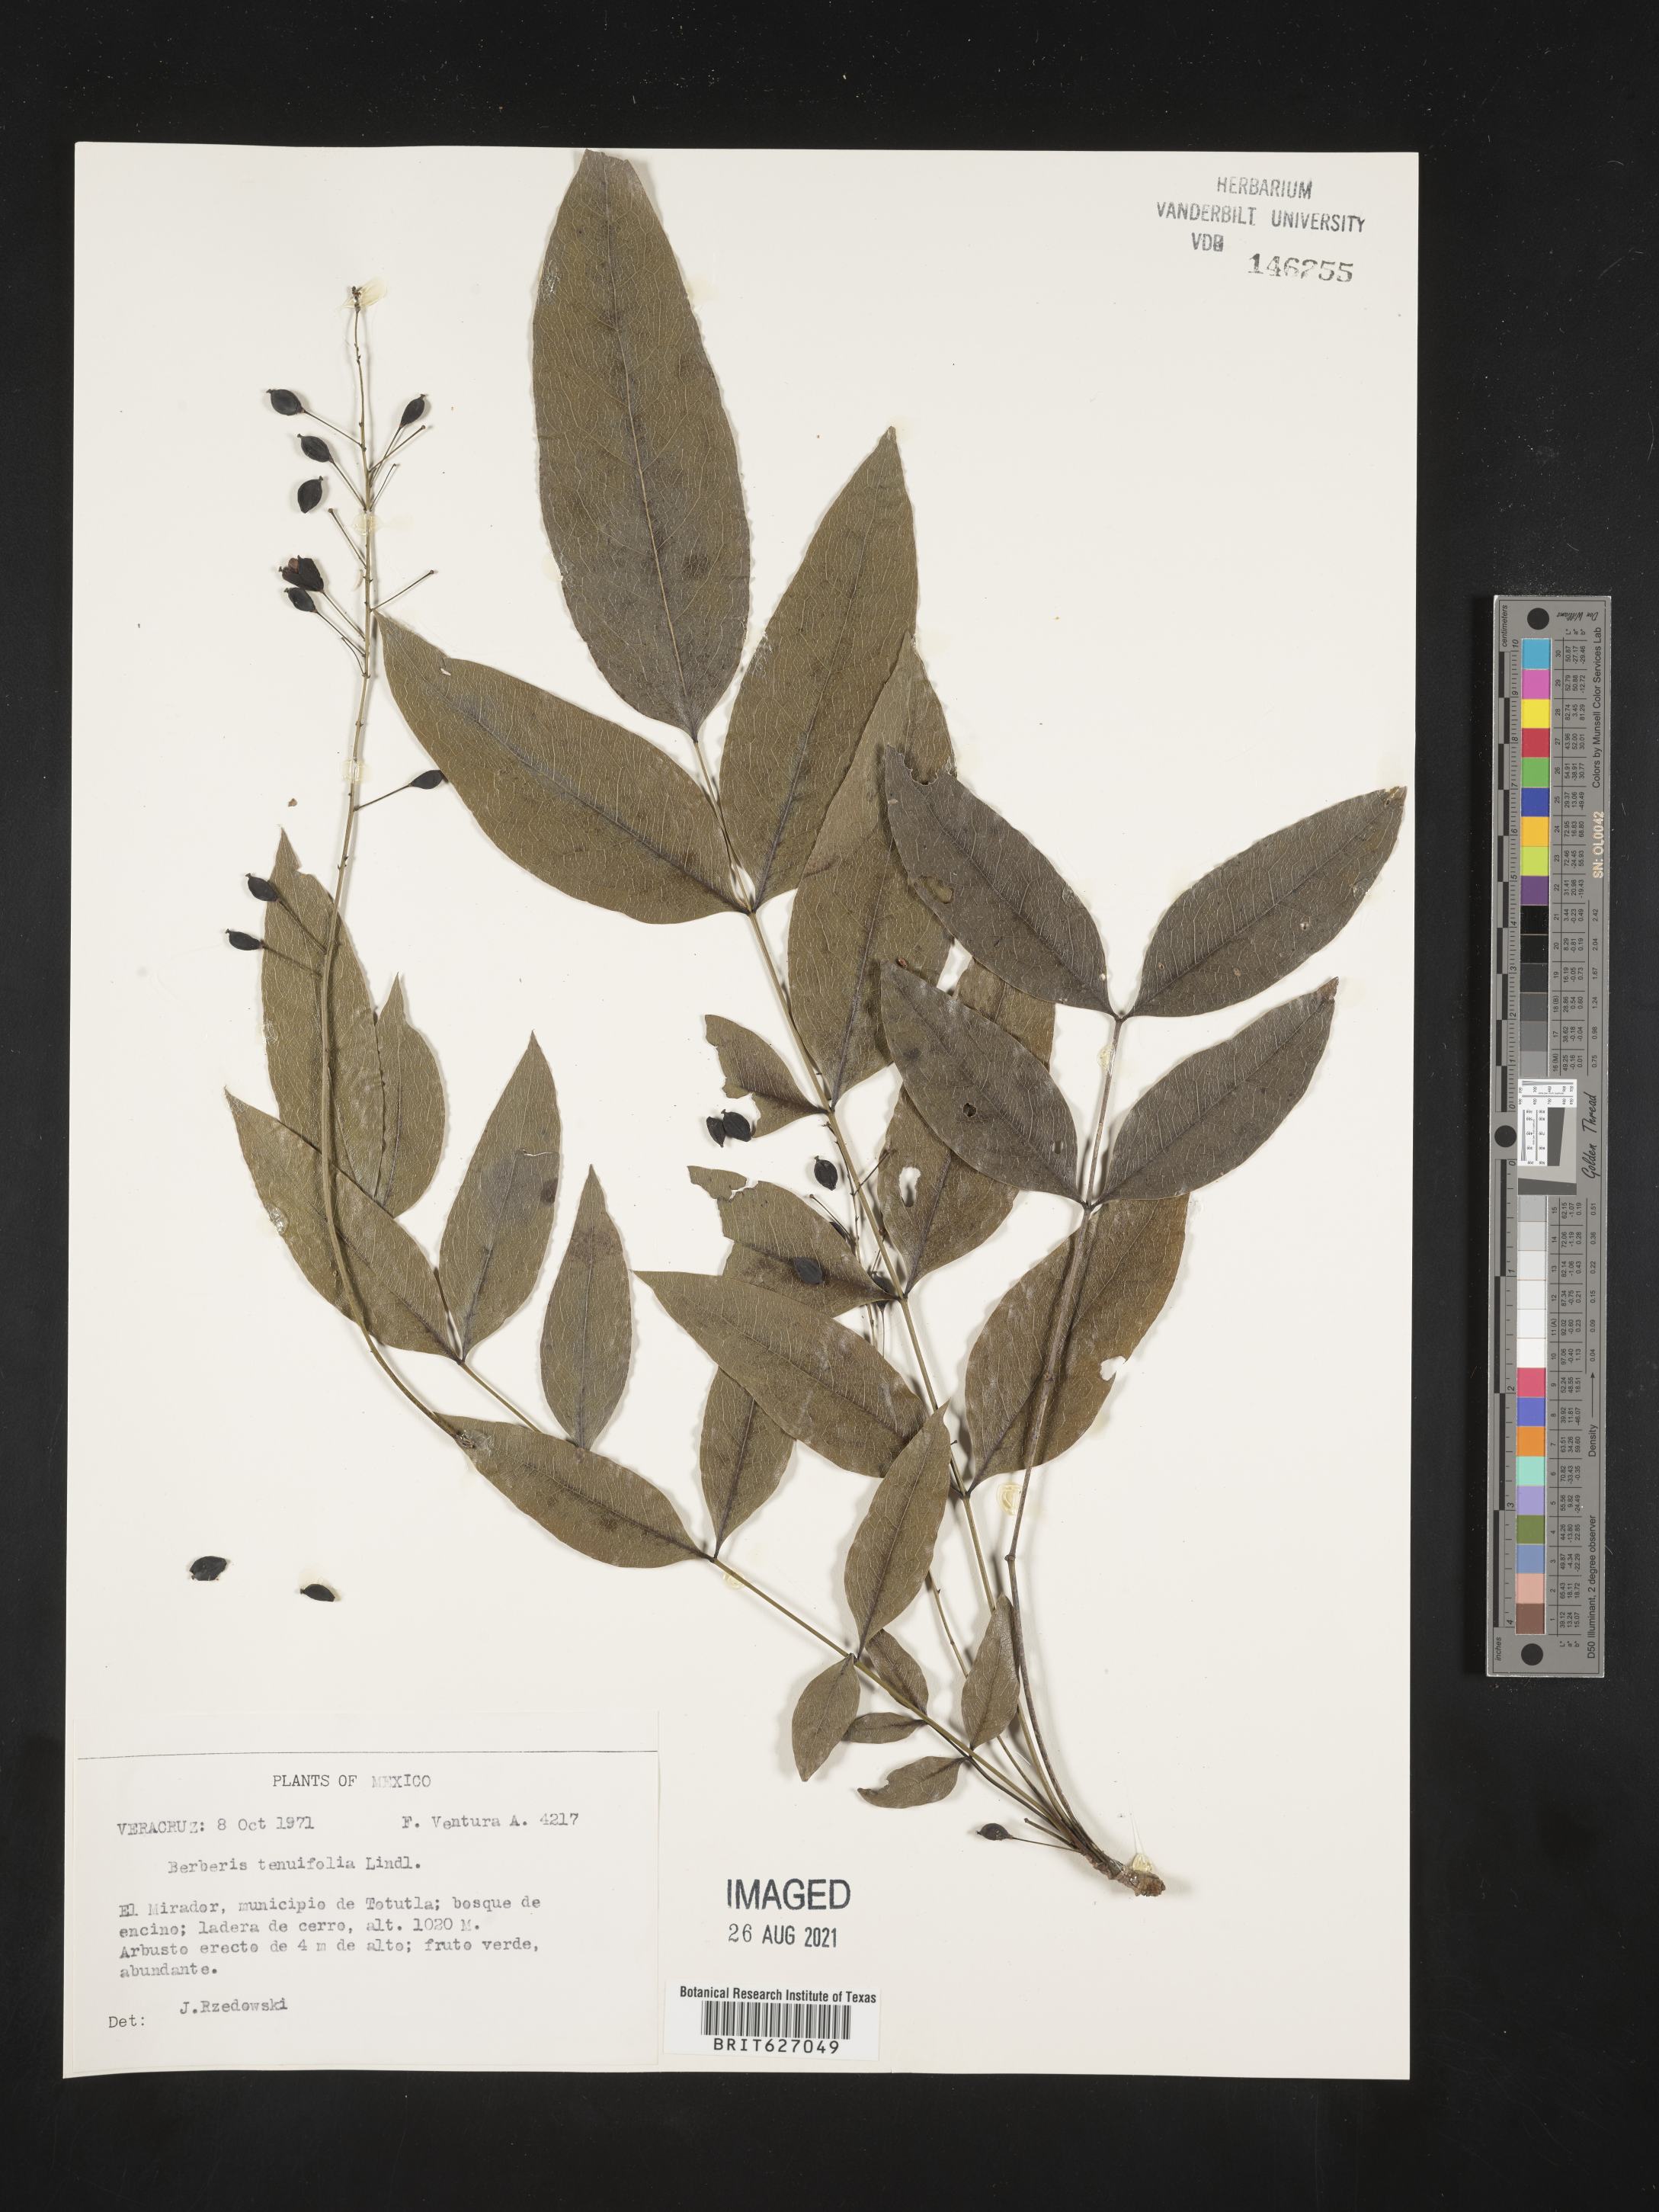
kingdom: Plantae
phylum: Tracheophyta
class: Magnoliopsida
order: Ranunculales
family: Berberidaceae
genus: Berberis
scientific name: Berberis
